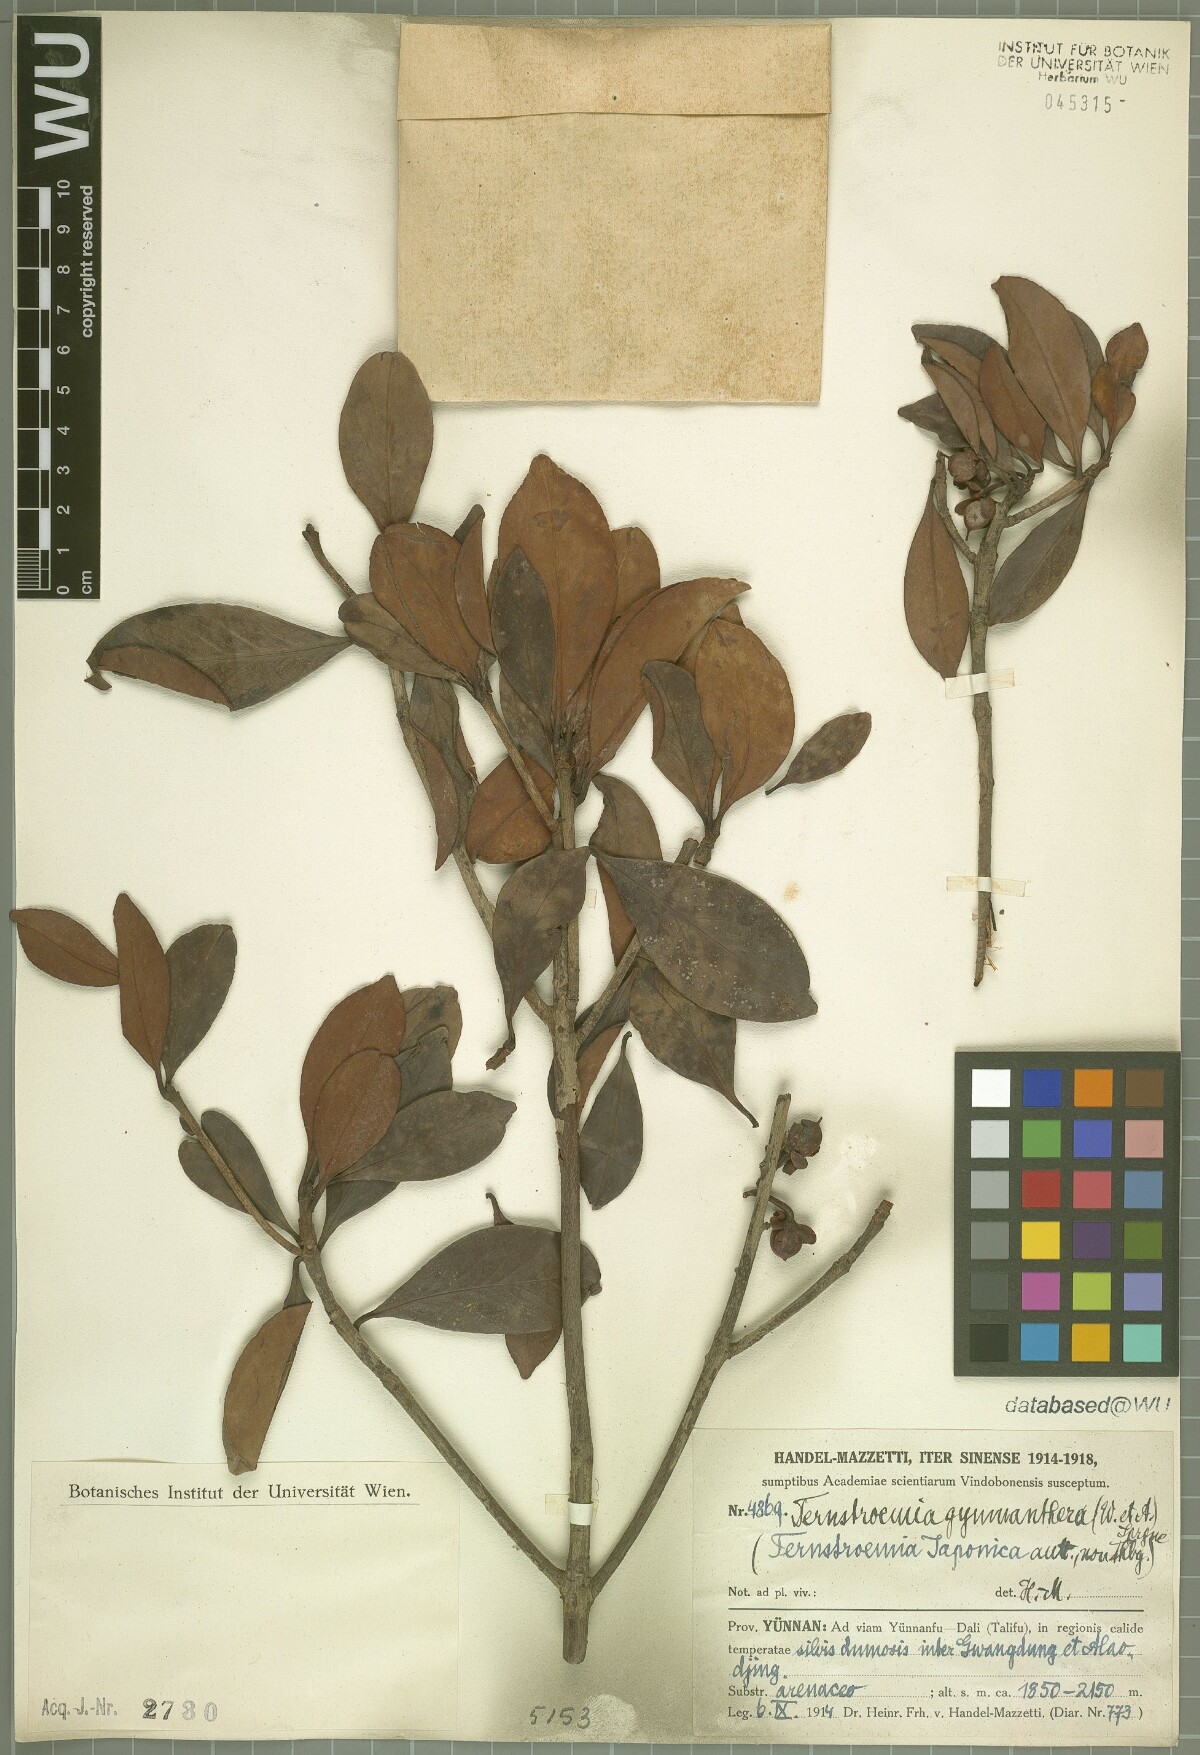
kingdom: Plantae
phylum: Tracheophyta
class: Magnoliopsida
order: Ericales
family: Pentaphylacaceae
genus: Ternstroemia
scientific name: Ternstroemia gymnanthera
